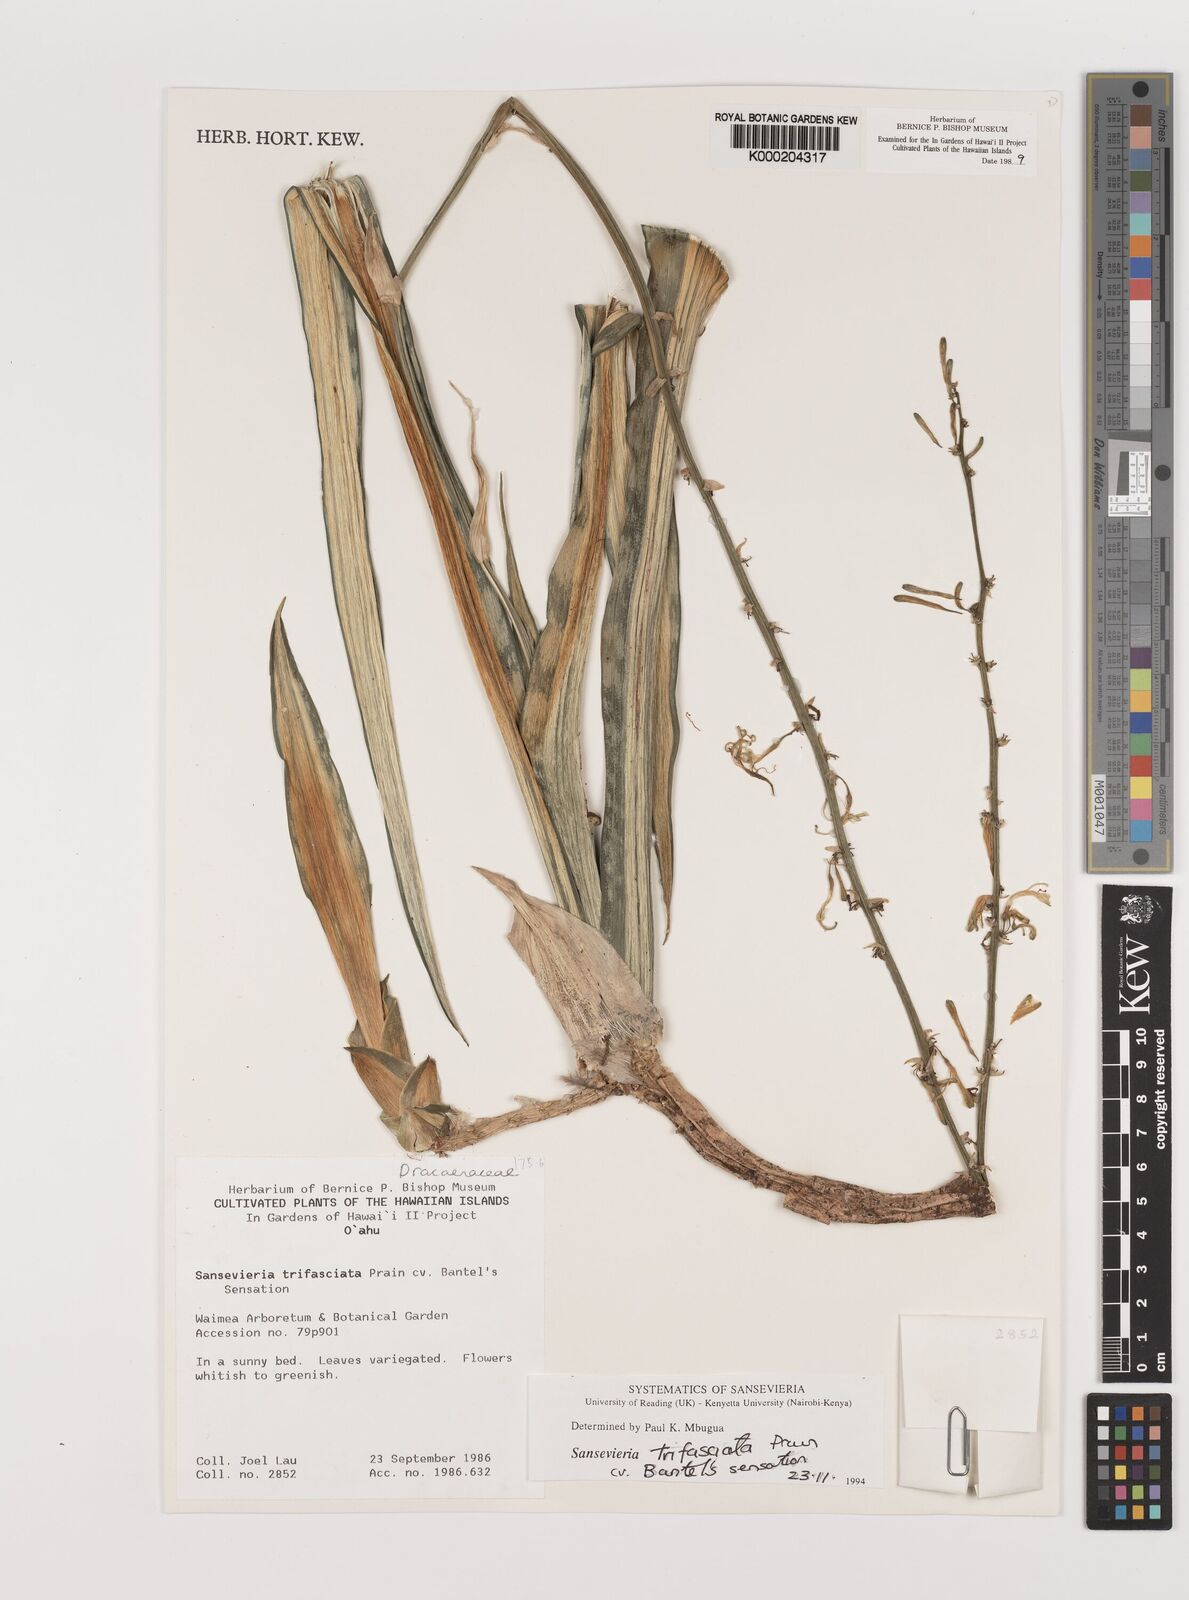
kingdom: Plantae
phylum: Tracheophyta
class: Liliopsida
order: Asparagales
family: Asparagaceae
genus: Dracaena
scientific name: Dracaena trifasciata
